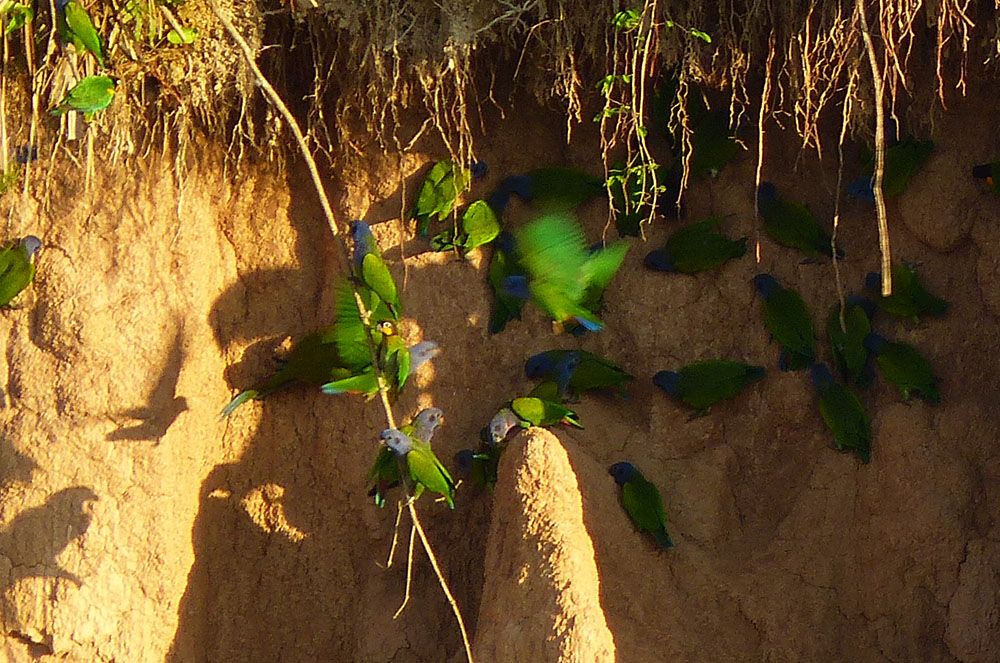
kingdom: Animalia
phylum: Chordata
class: Aves
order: Psittaciformes
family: Psittacidae
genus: Pionus
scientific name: Pionus menstruus
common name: Blue-headed parrot
